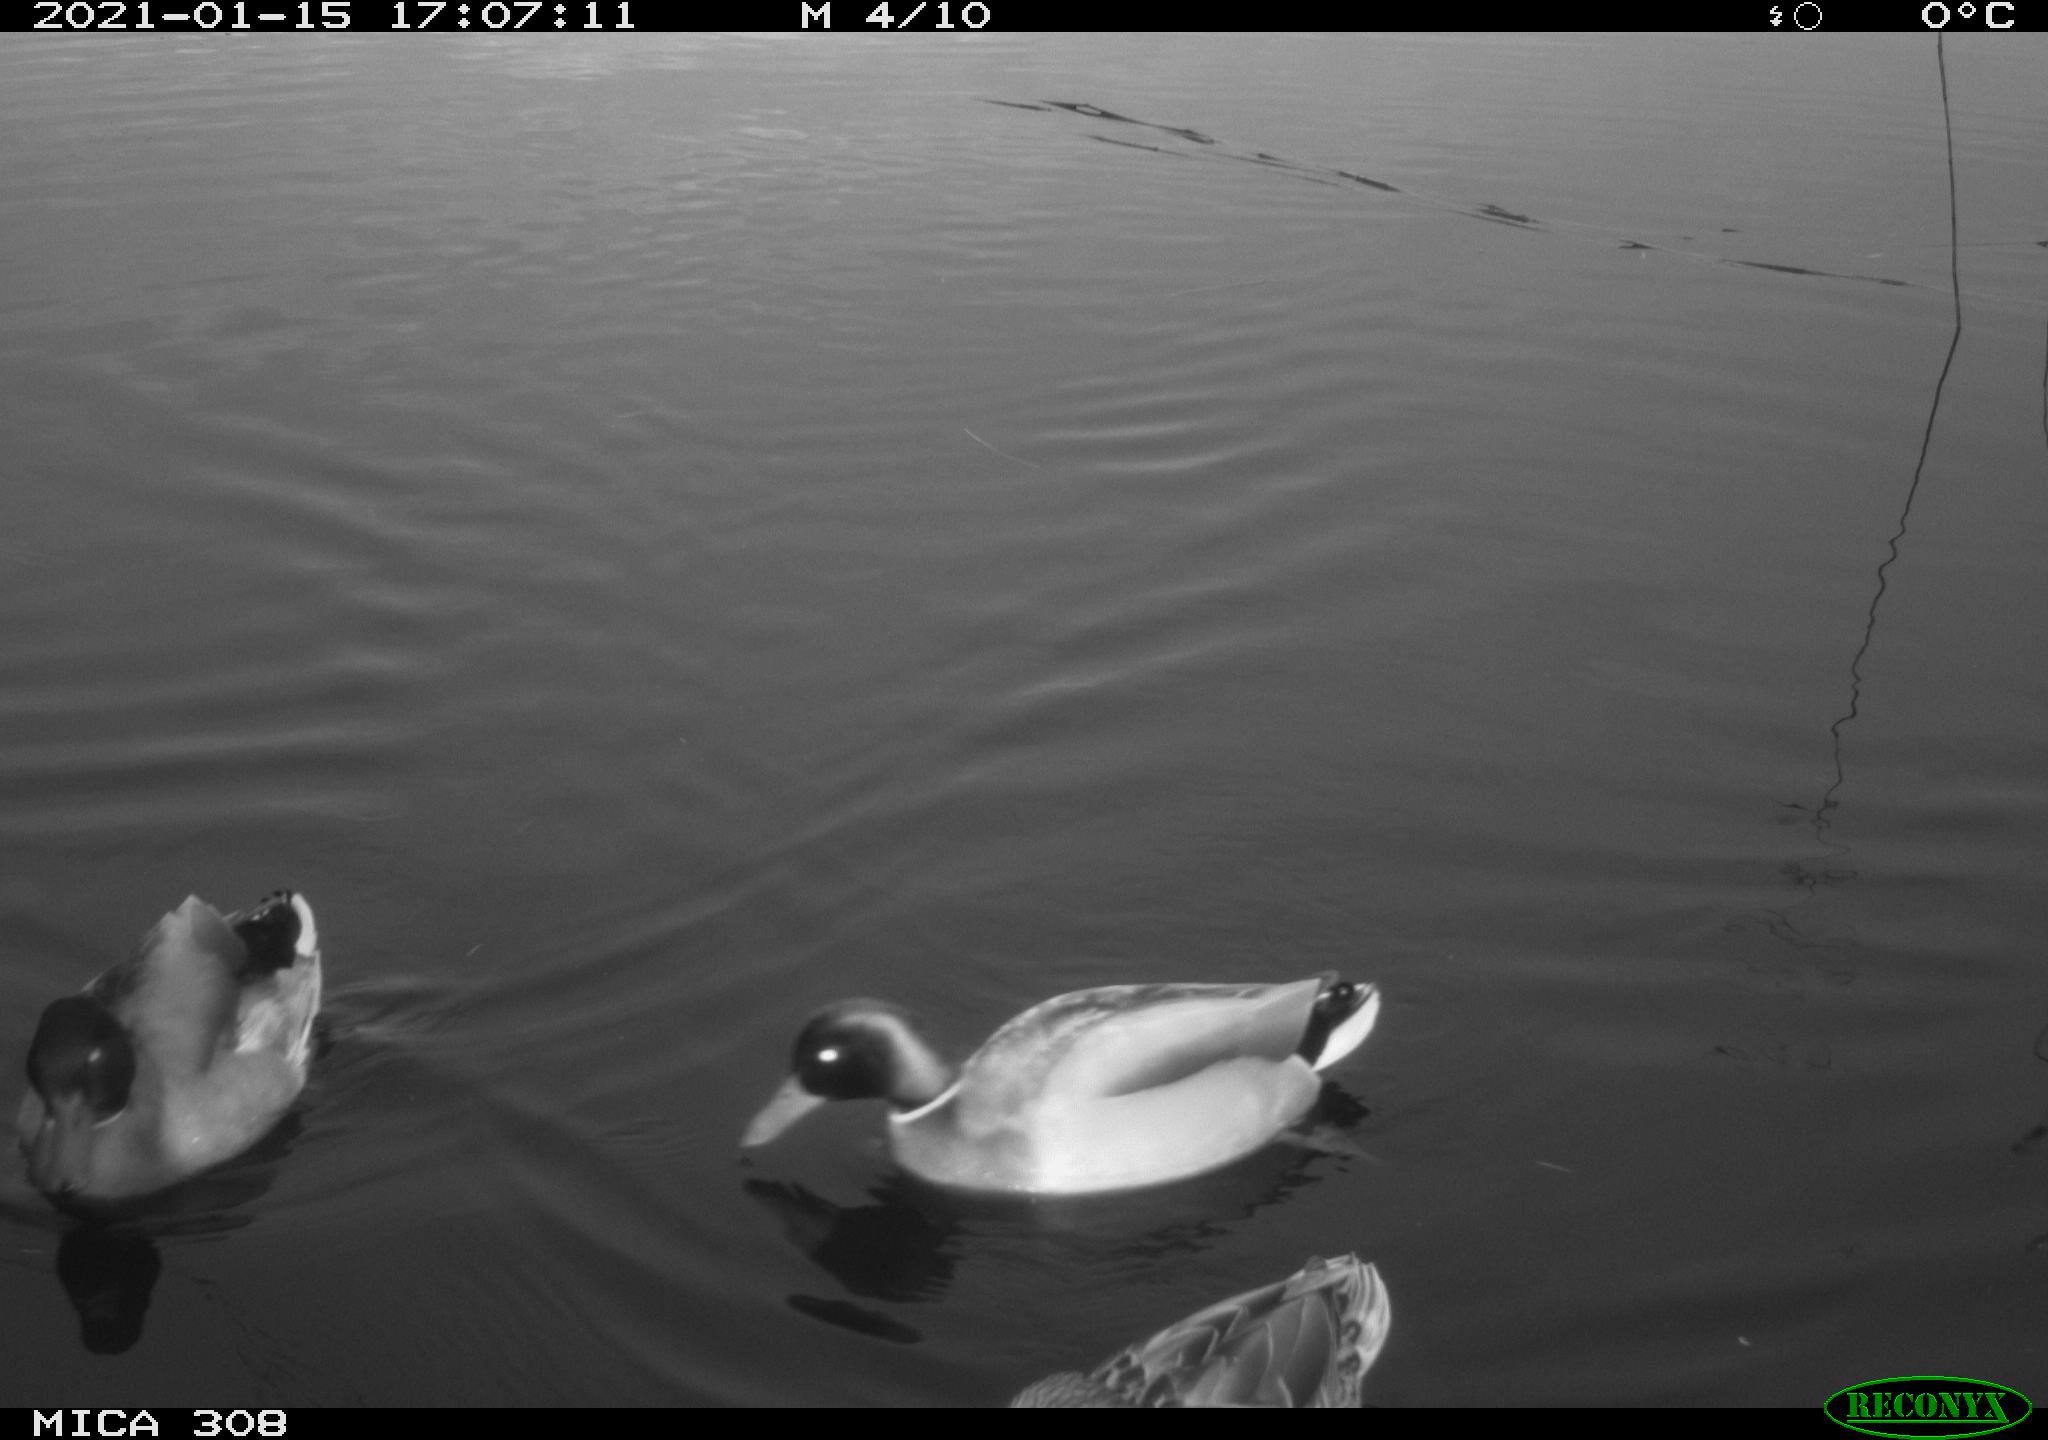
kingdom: Animalia
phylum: Chordata
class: Aves
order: Anseriformes
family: Anatidae
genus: Mareca
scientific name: Mareca strepera
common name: Gadwall
